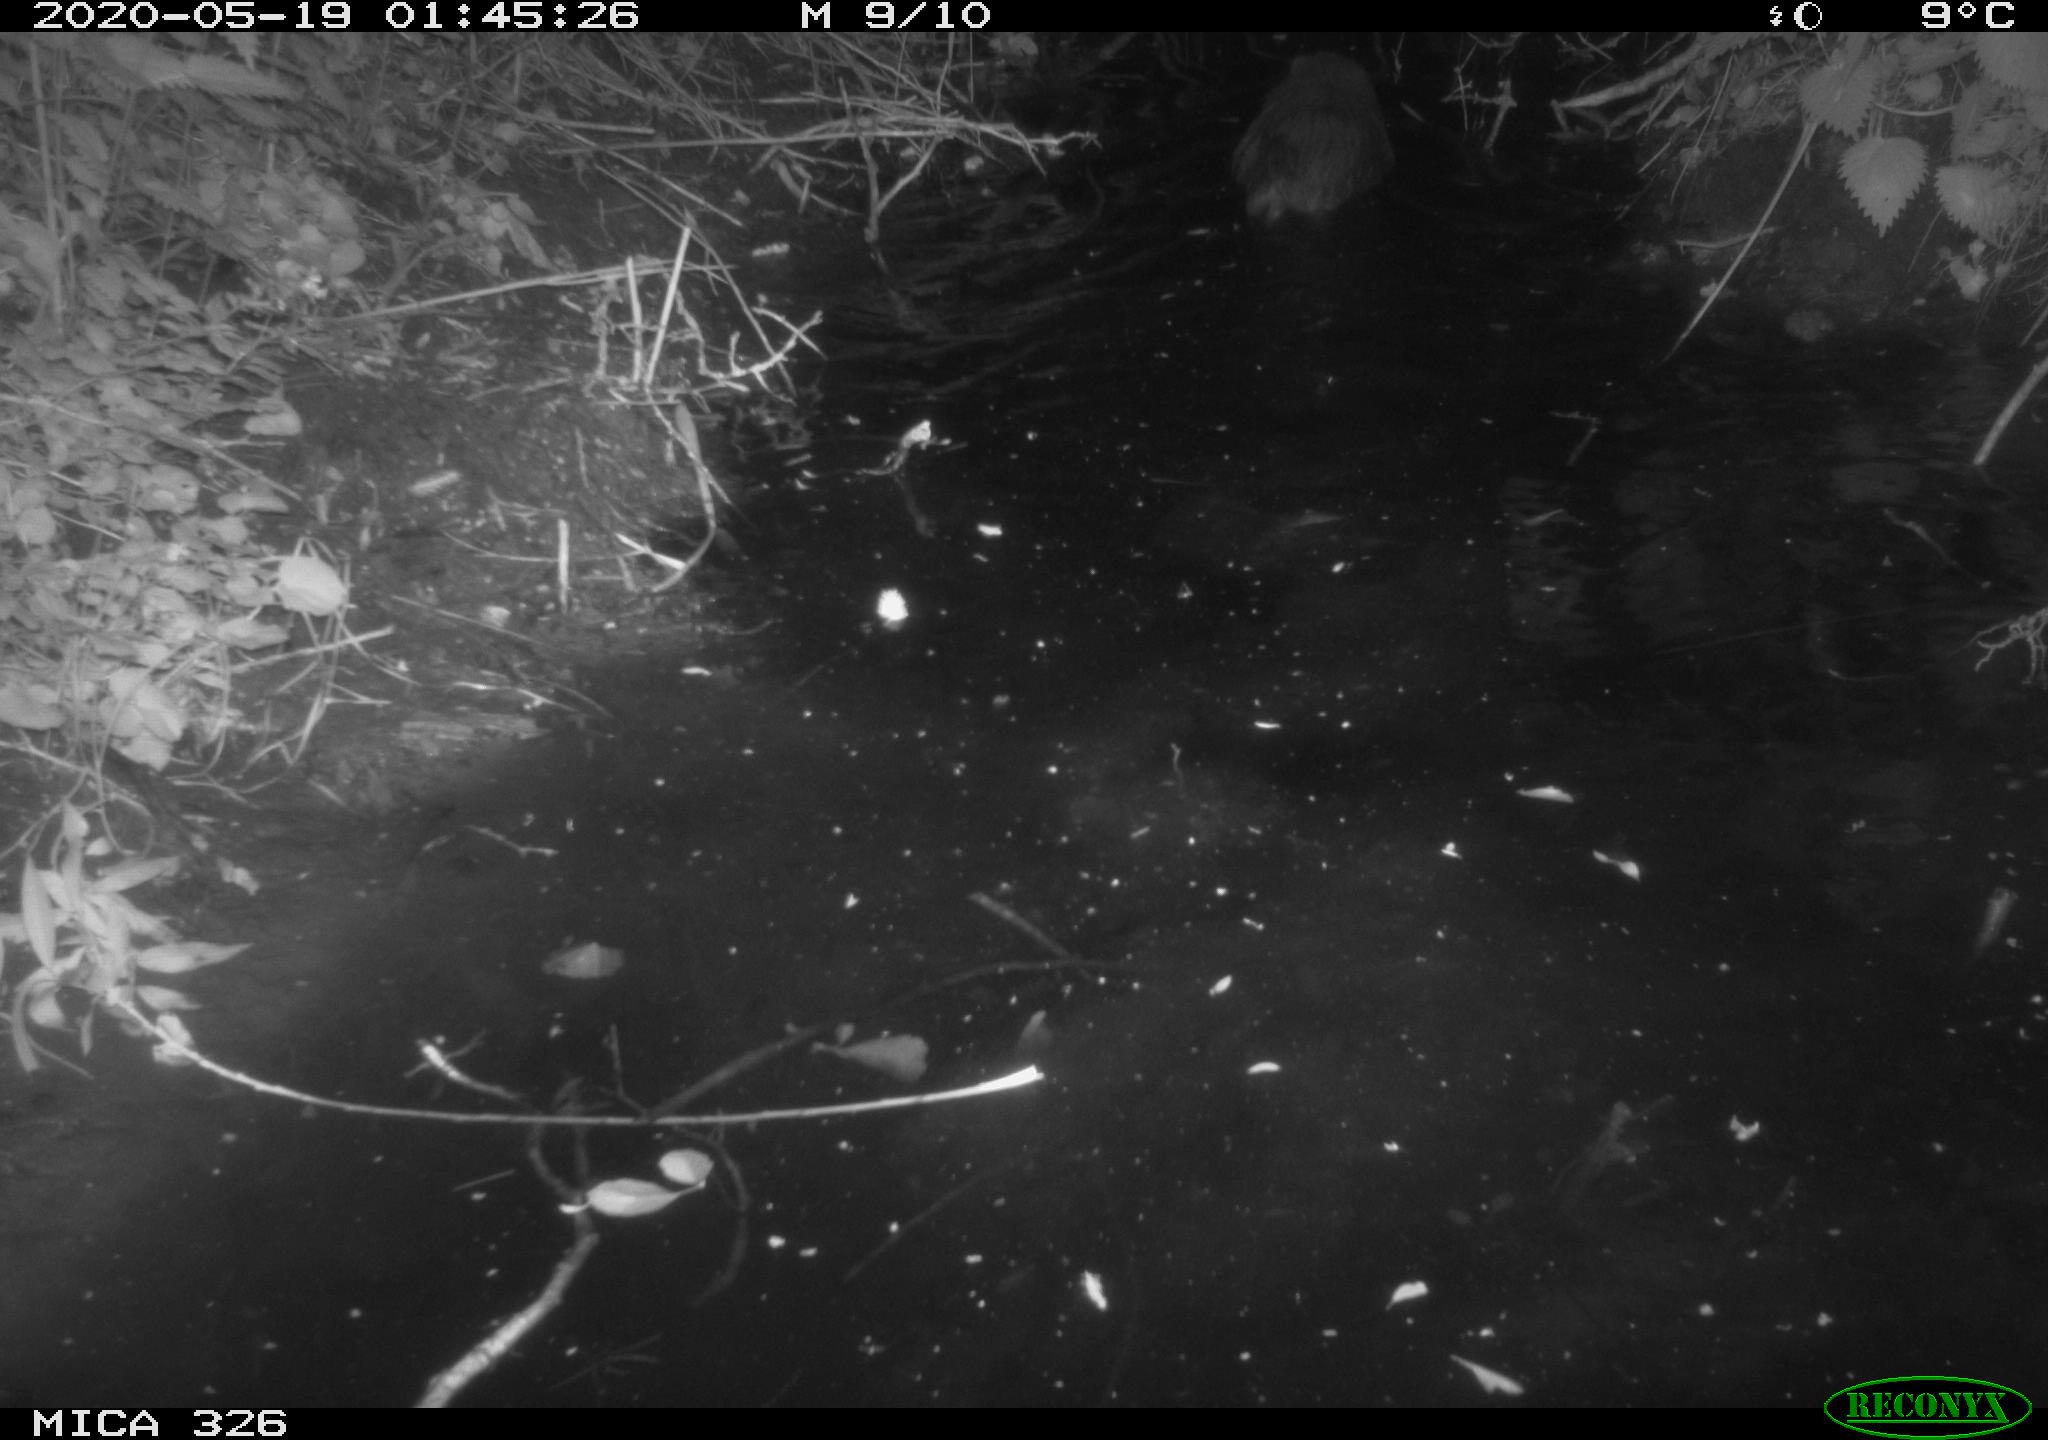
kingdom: Animalia
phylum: Chordata
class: Mammalia
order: Rodentia
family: Myocastoridae
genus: Myocastor
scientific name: Myocastor coypus
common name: Coypu
